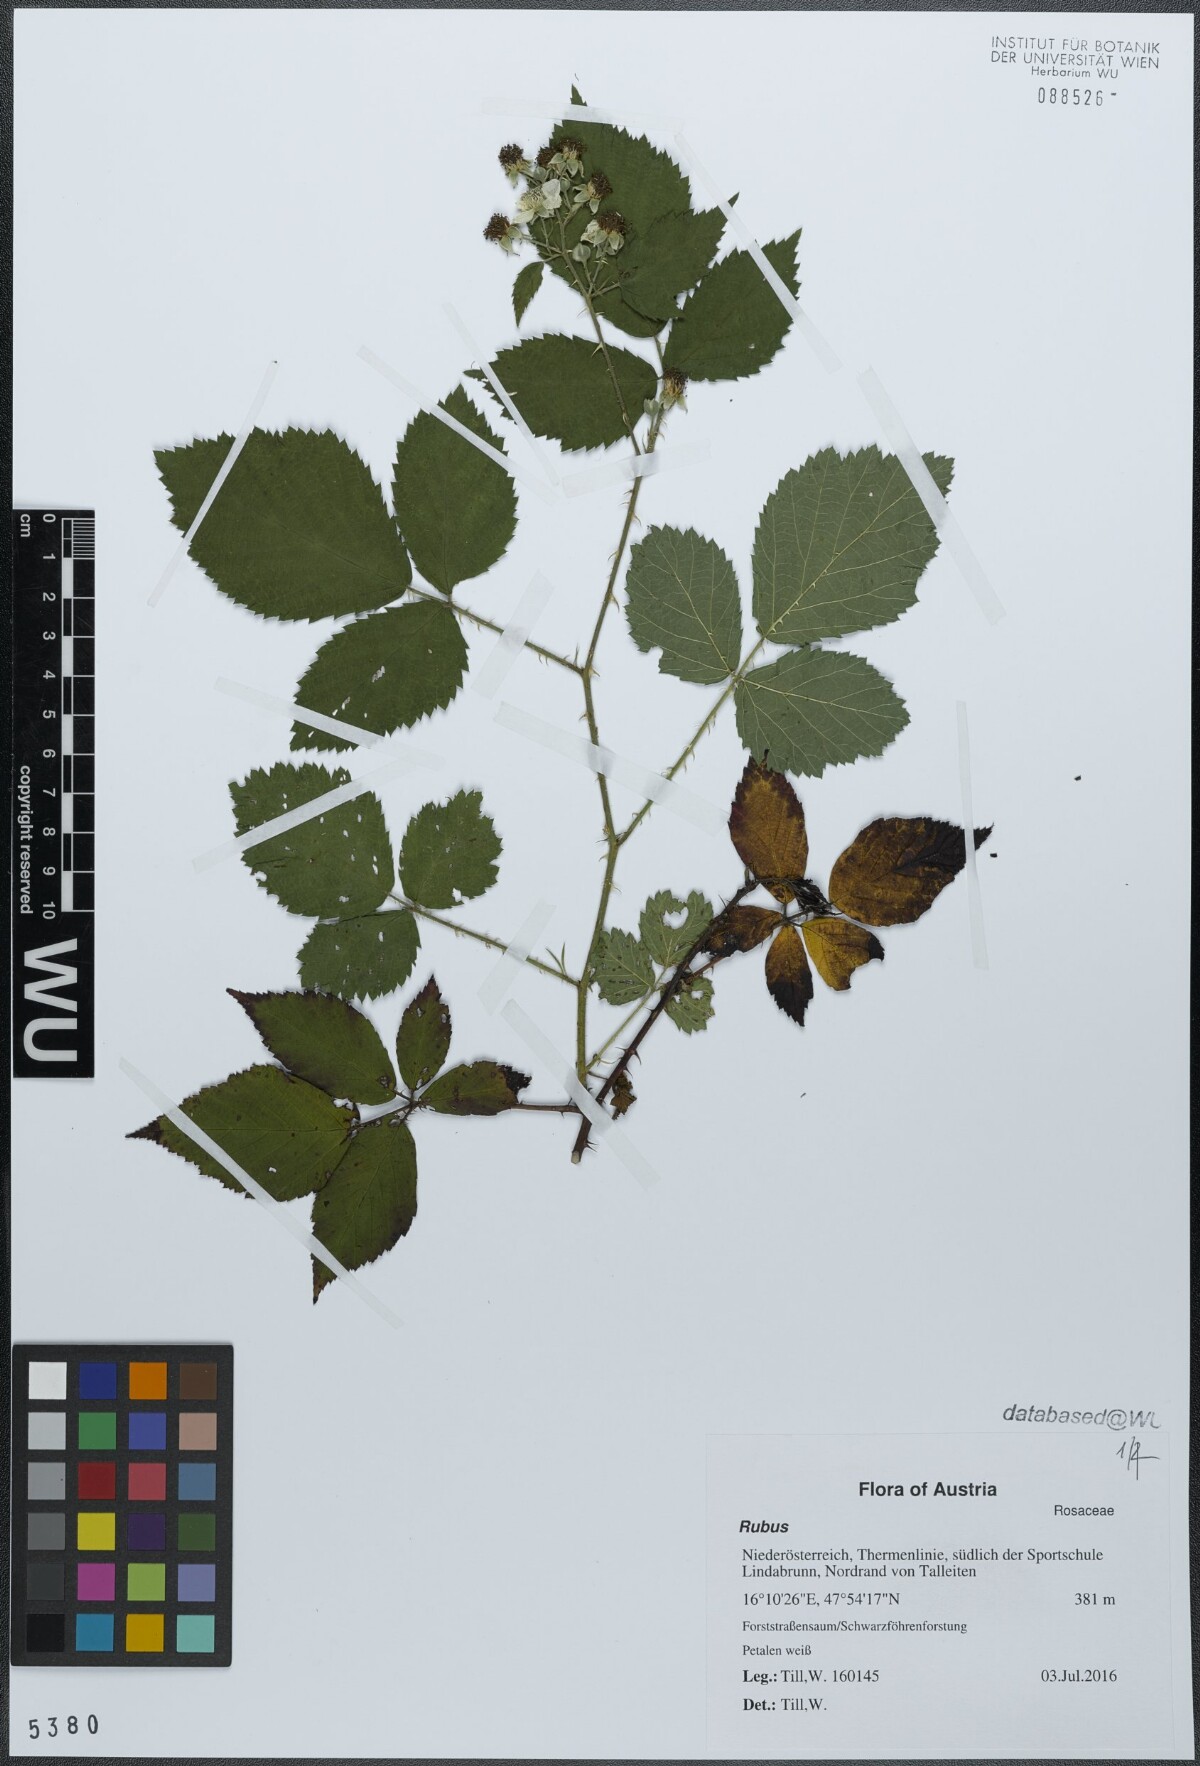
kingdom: Plantae
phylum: Tracheophyta
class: Magnoliopsida
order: Rosales
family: Rosaceae
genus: Rubus
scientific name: Rubus
